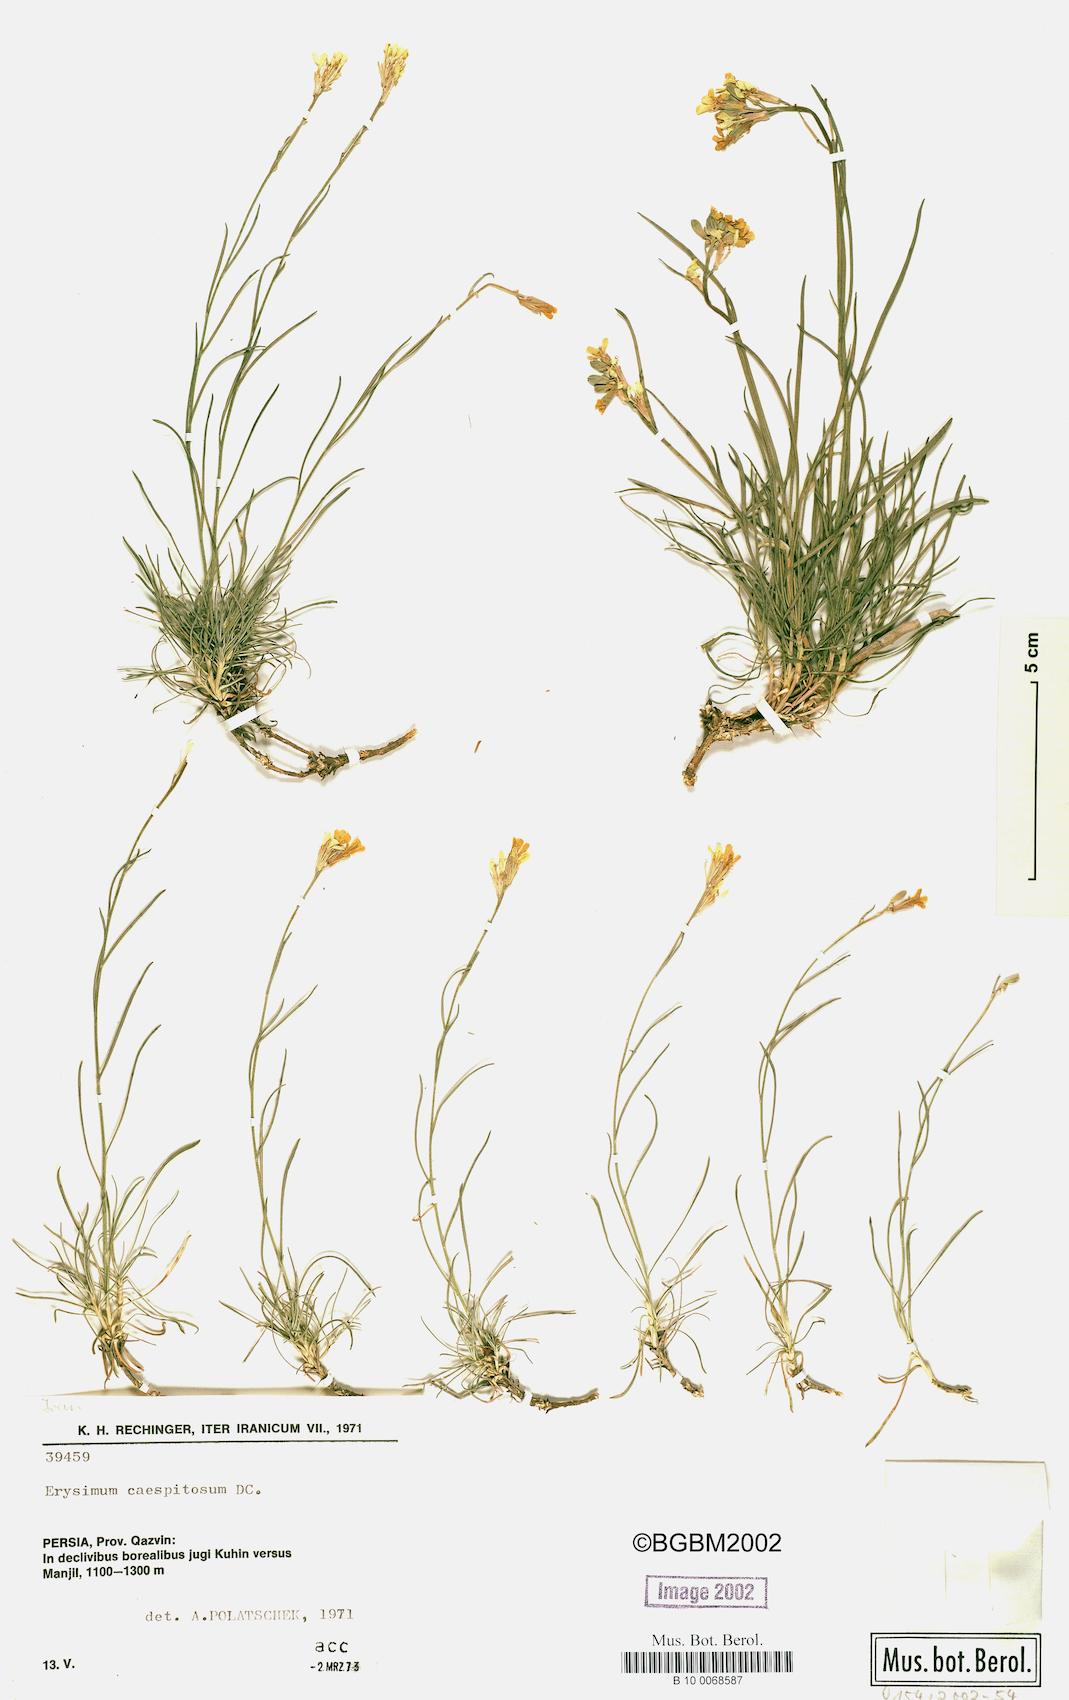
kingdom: Plantae
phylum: Tracheophyta
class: Magnoliopsida
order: Brassicales
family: Brassicaceae
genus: Erysimum
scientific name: Erysimum caespitosum
